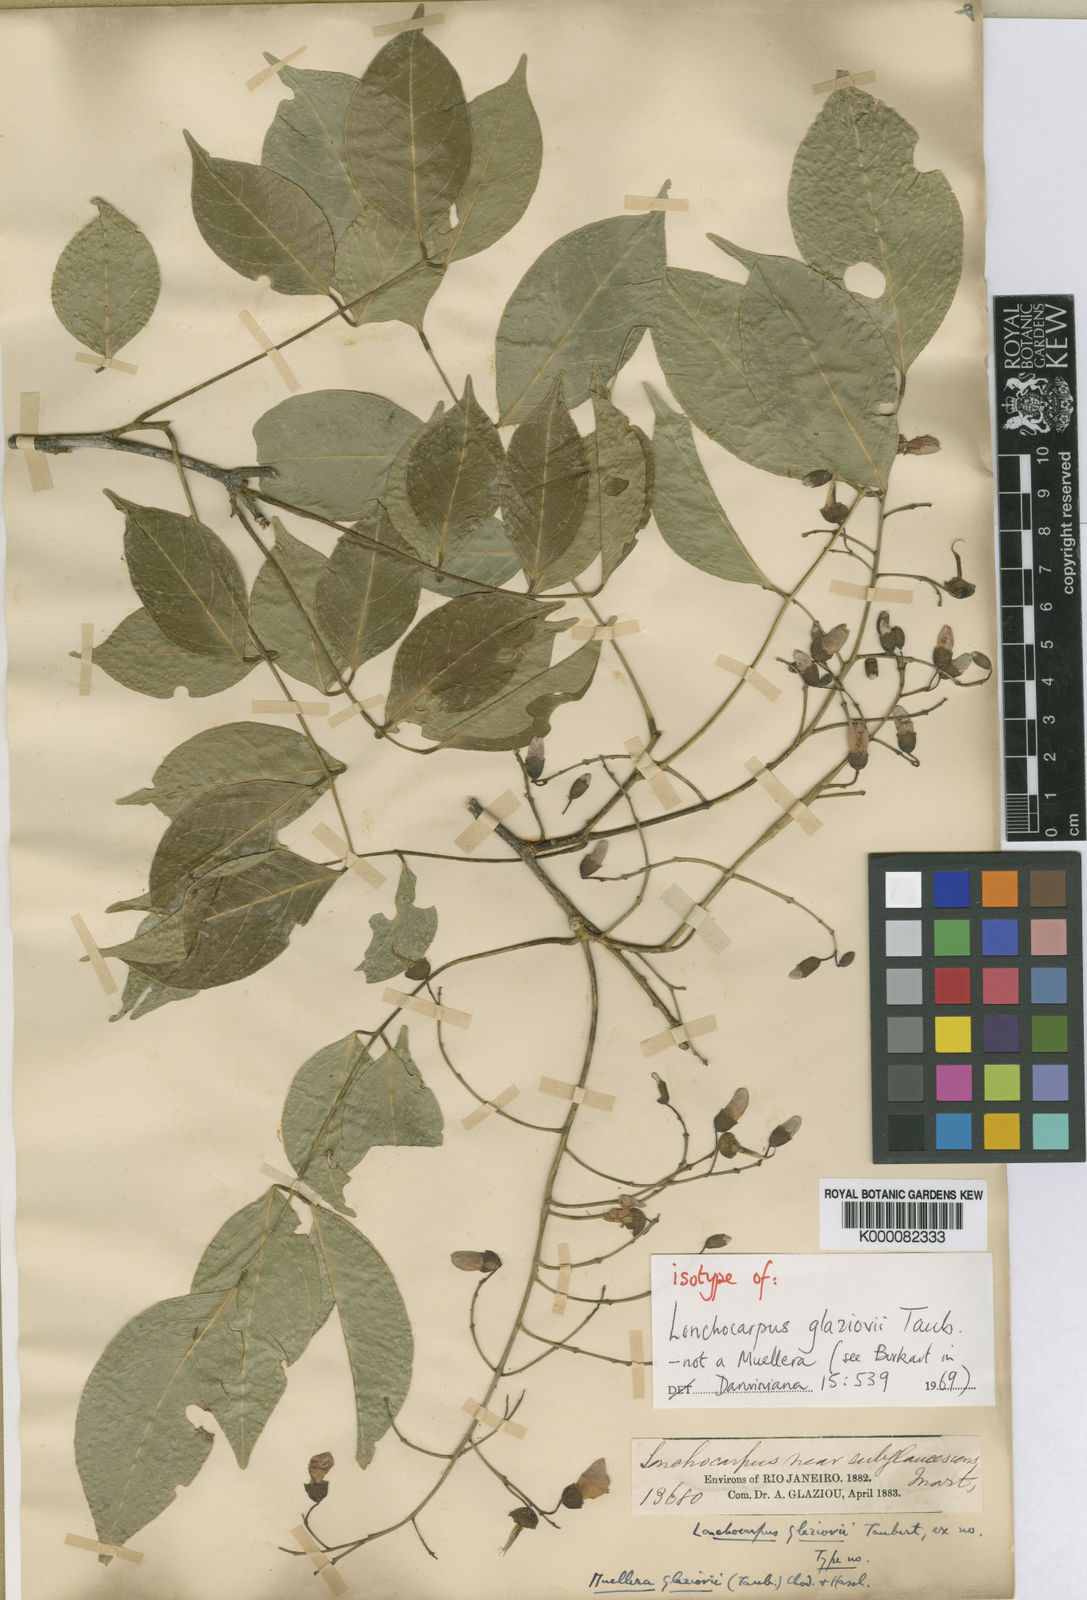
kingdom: Plantae
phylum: Tracheophyta
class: Magnoliopsida
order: Fabales
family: Fabaceae
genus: Dahlstedtia
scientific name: Dahlstedtia glaziovii
